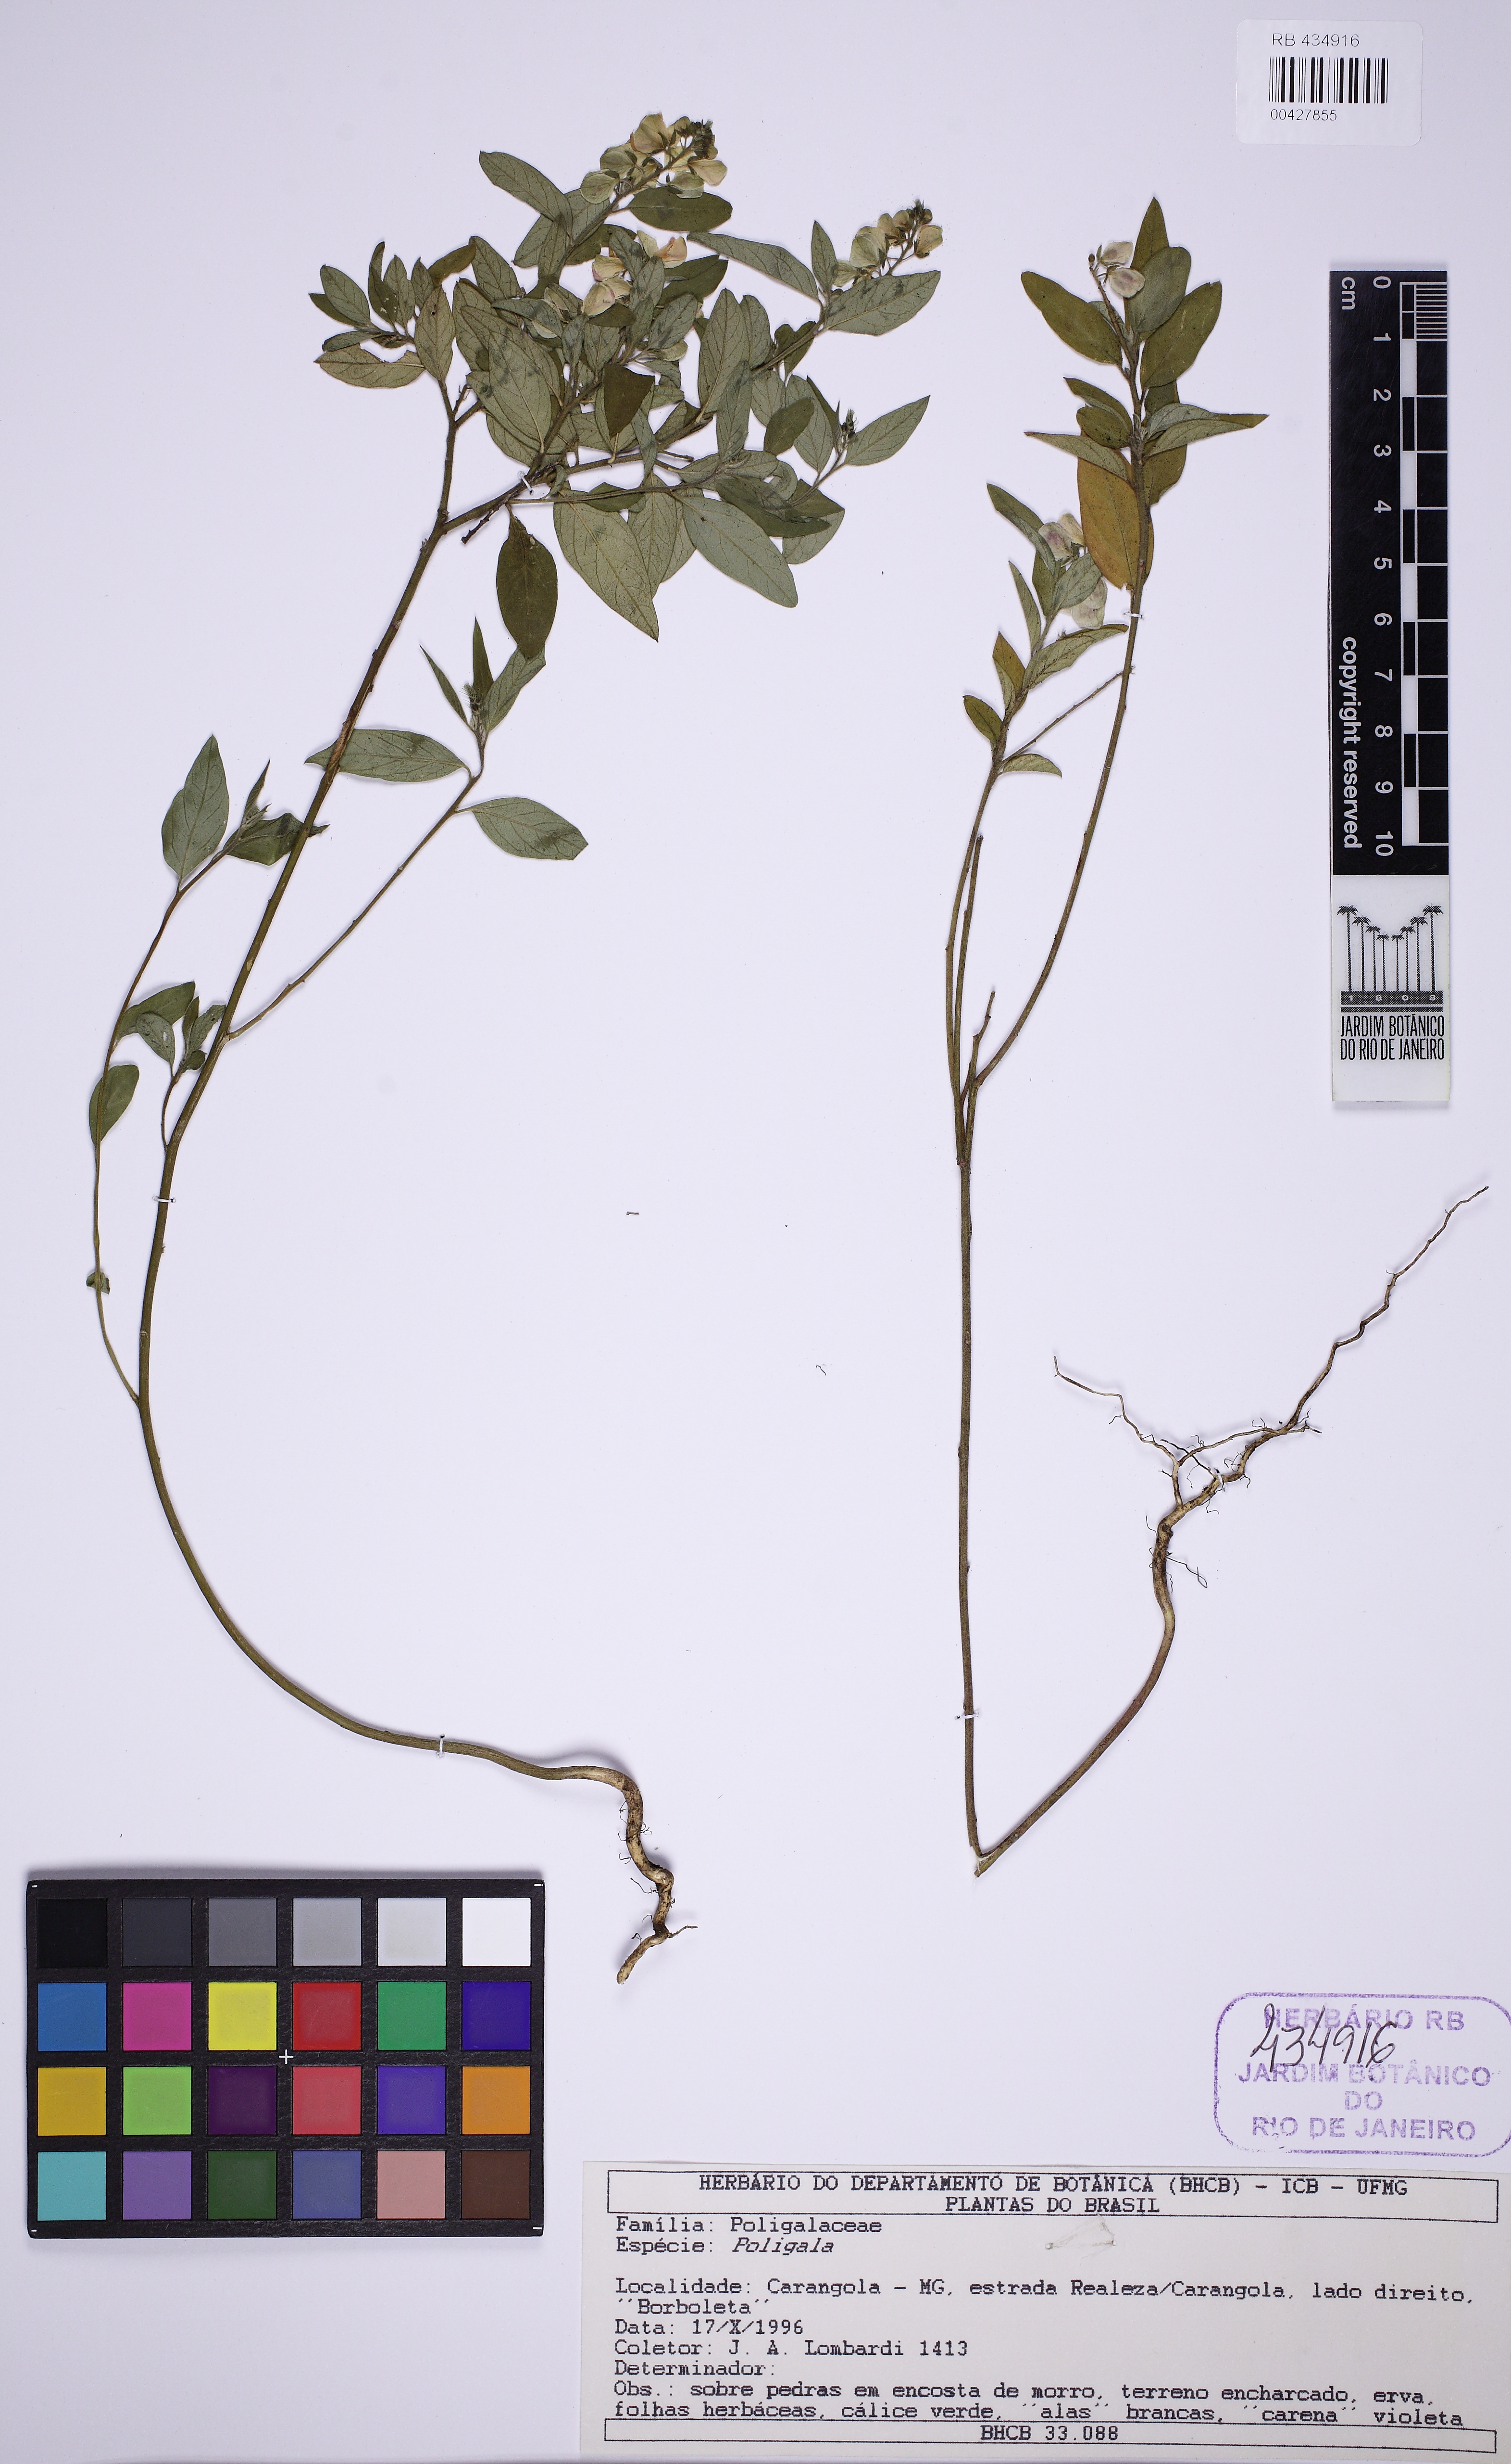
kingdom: Plantae
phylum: Tracheophyta
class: Magnoliopsida
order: Fabales
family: Polygalaceae
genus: Asemeia
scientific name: Asemeia
